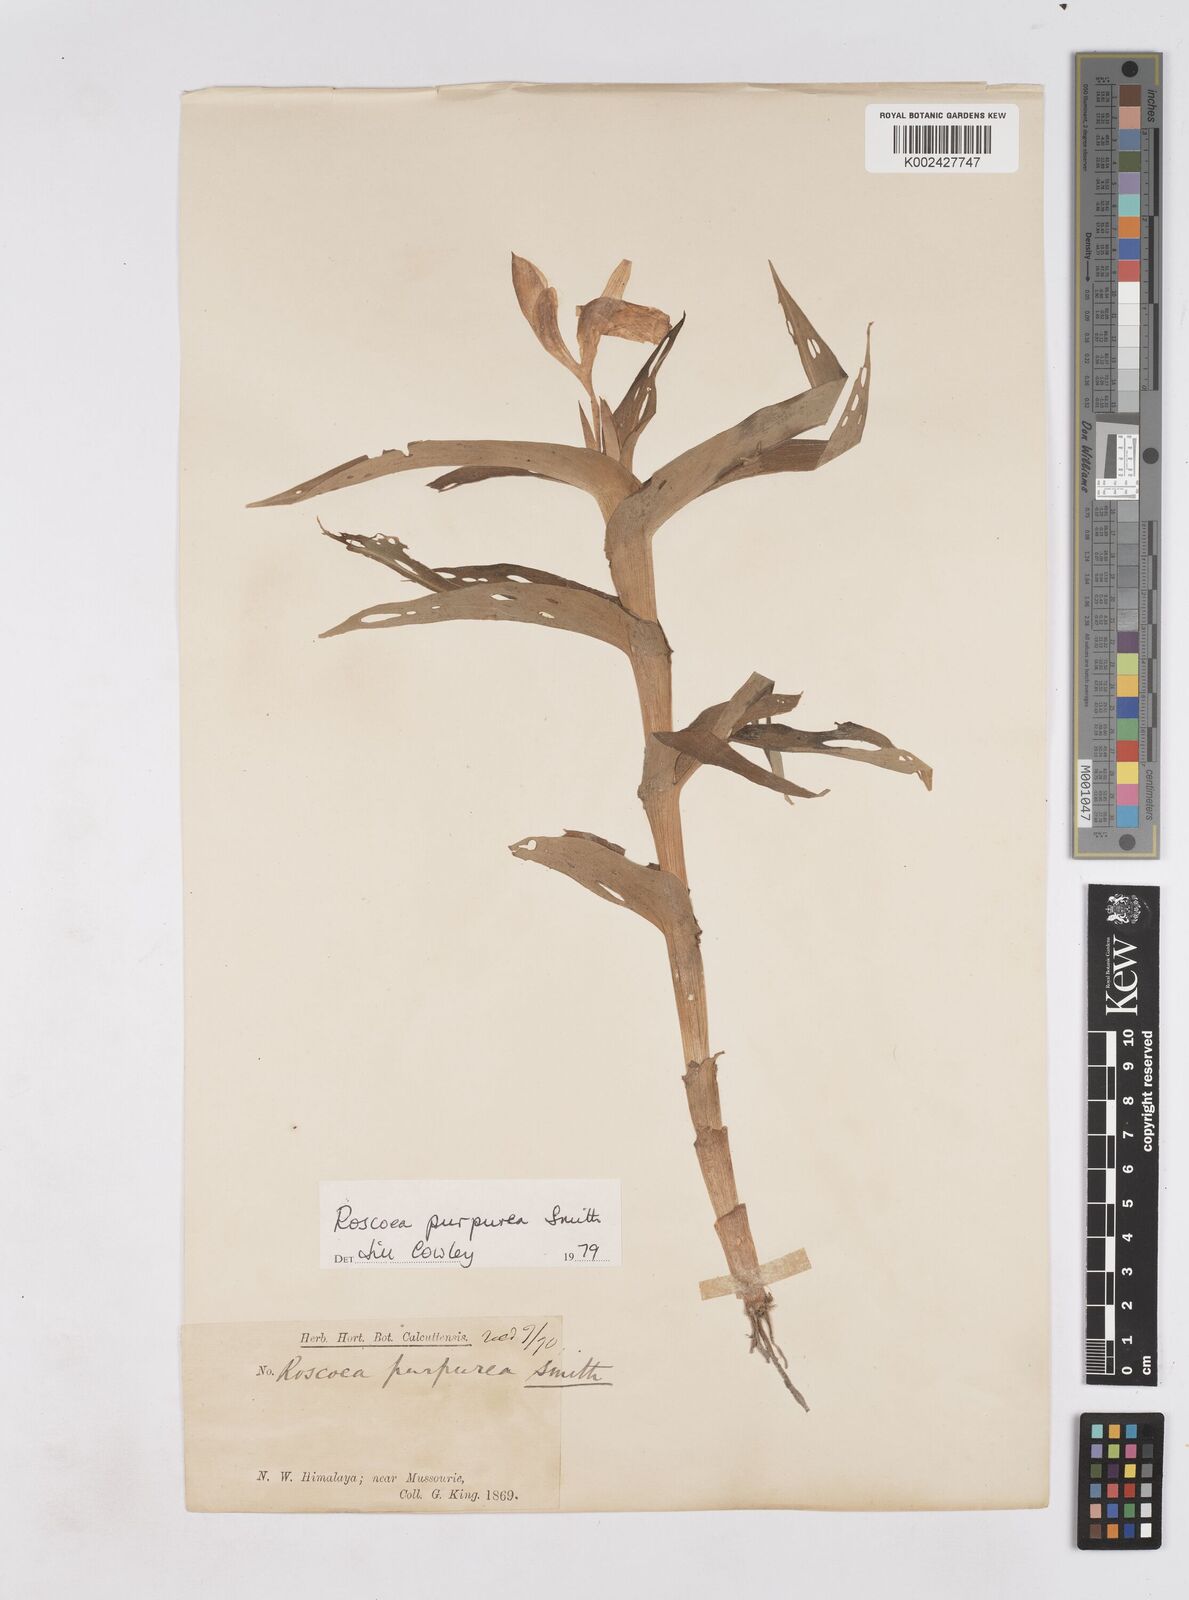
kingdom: Plantae
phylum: Tracheophyta
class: Liliopsida
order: Zingiberales
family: Zingiberaceae
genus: Roscoea
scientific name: Roscoea purpurea
